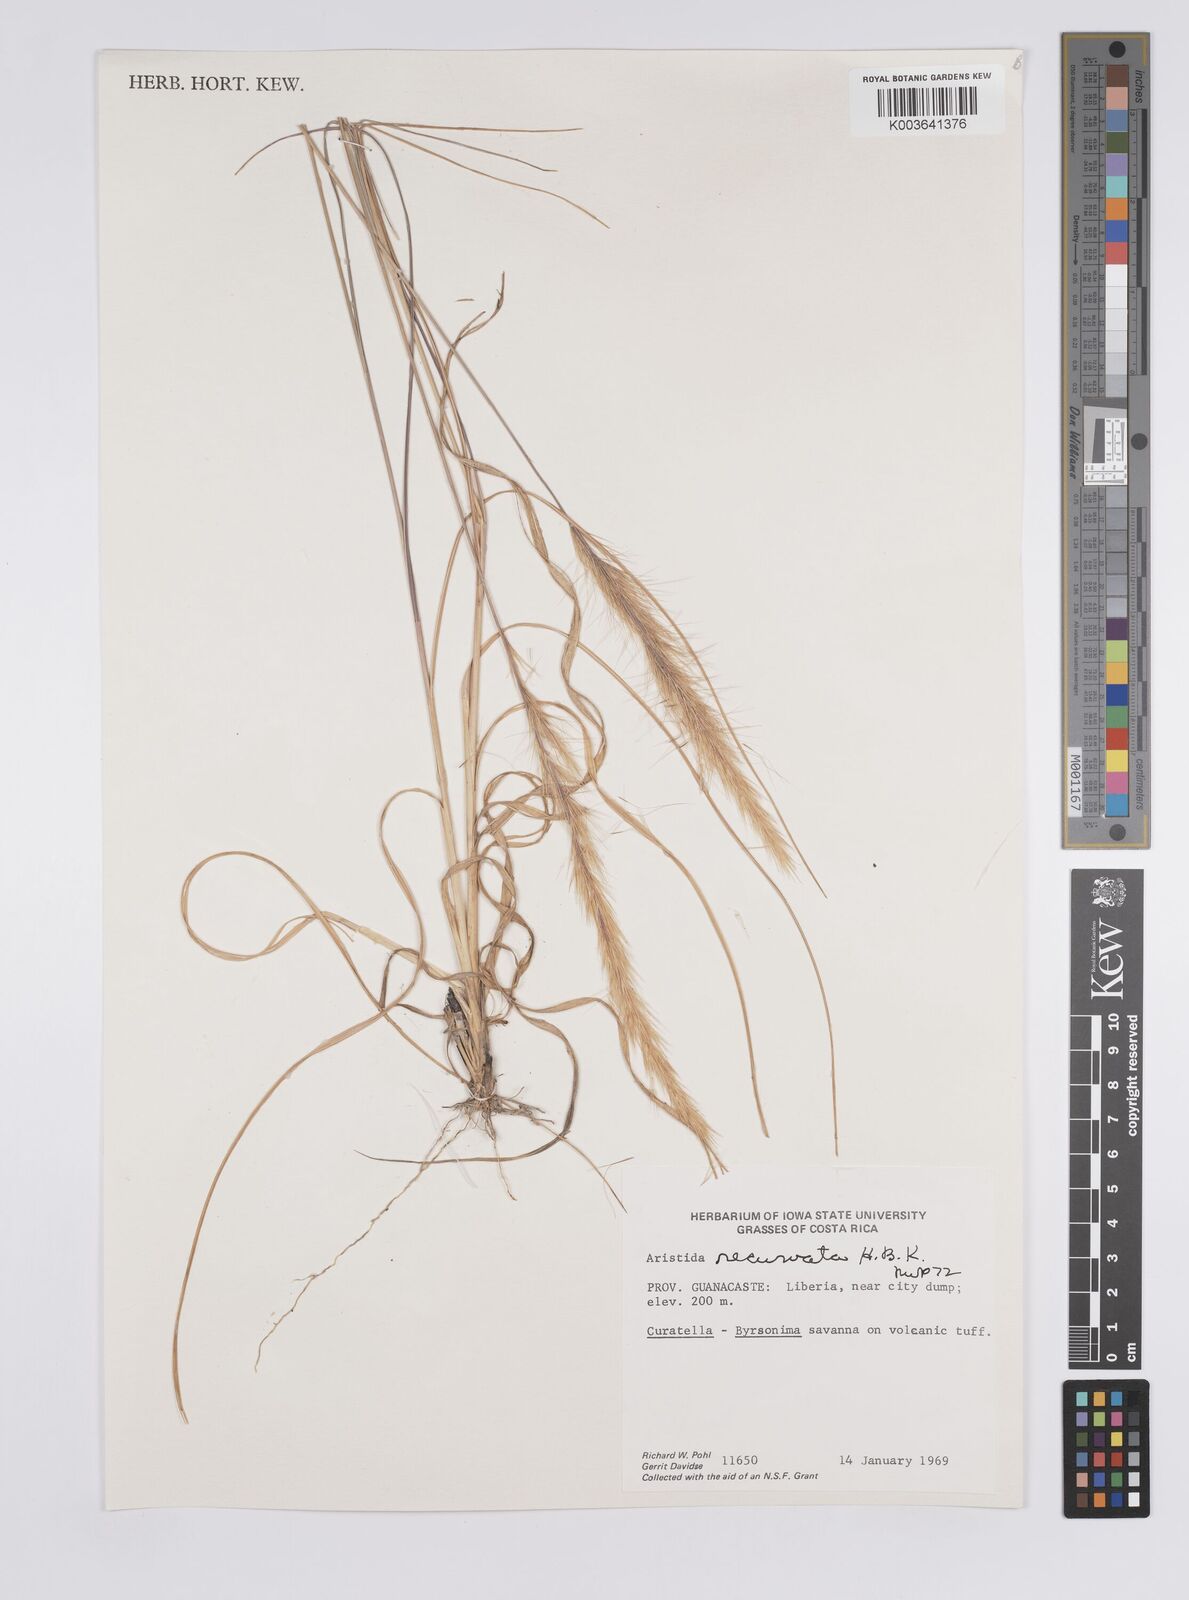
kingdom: Plantae
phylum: Tracheophyta
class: Liliopsida
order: Poales
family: Poaceae
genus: Aristida
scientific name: Aristida recurvata
